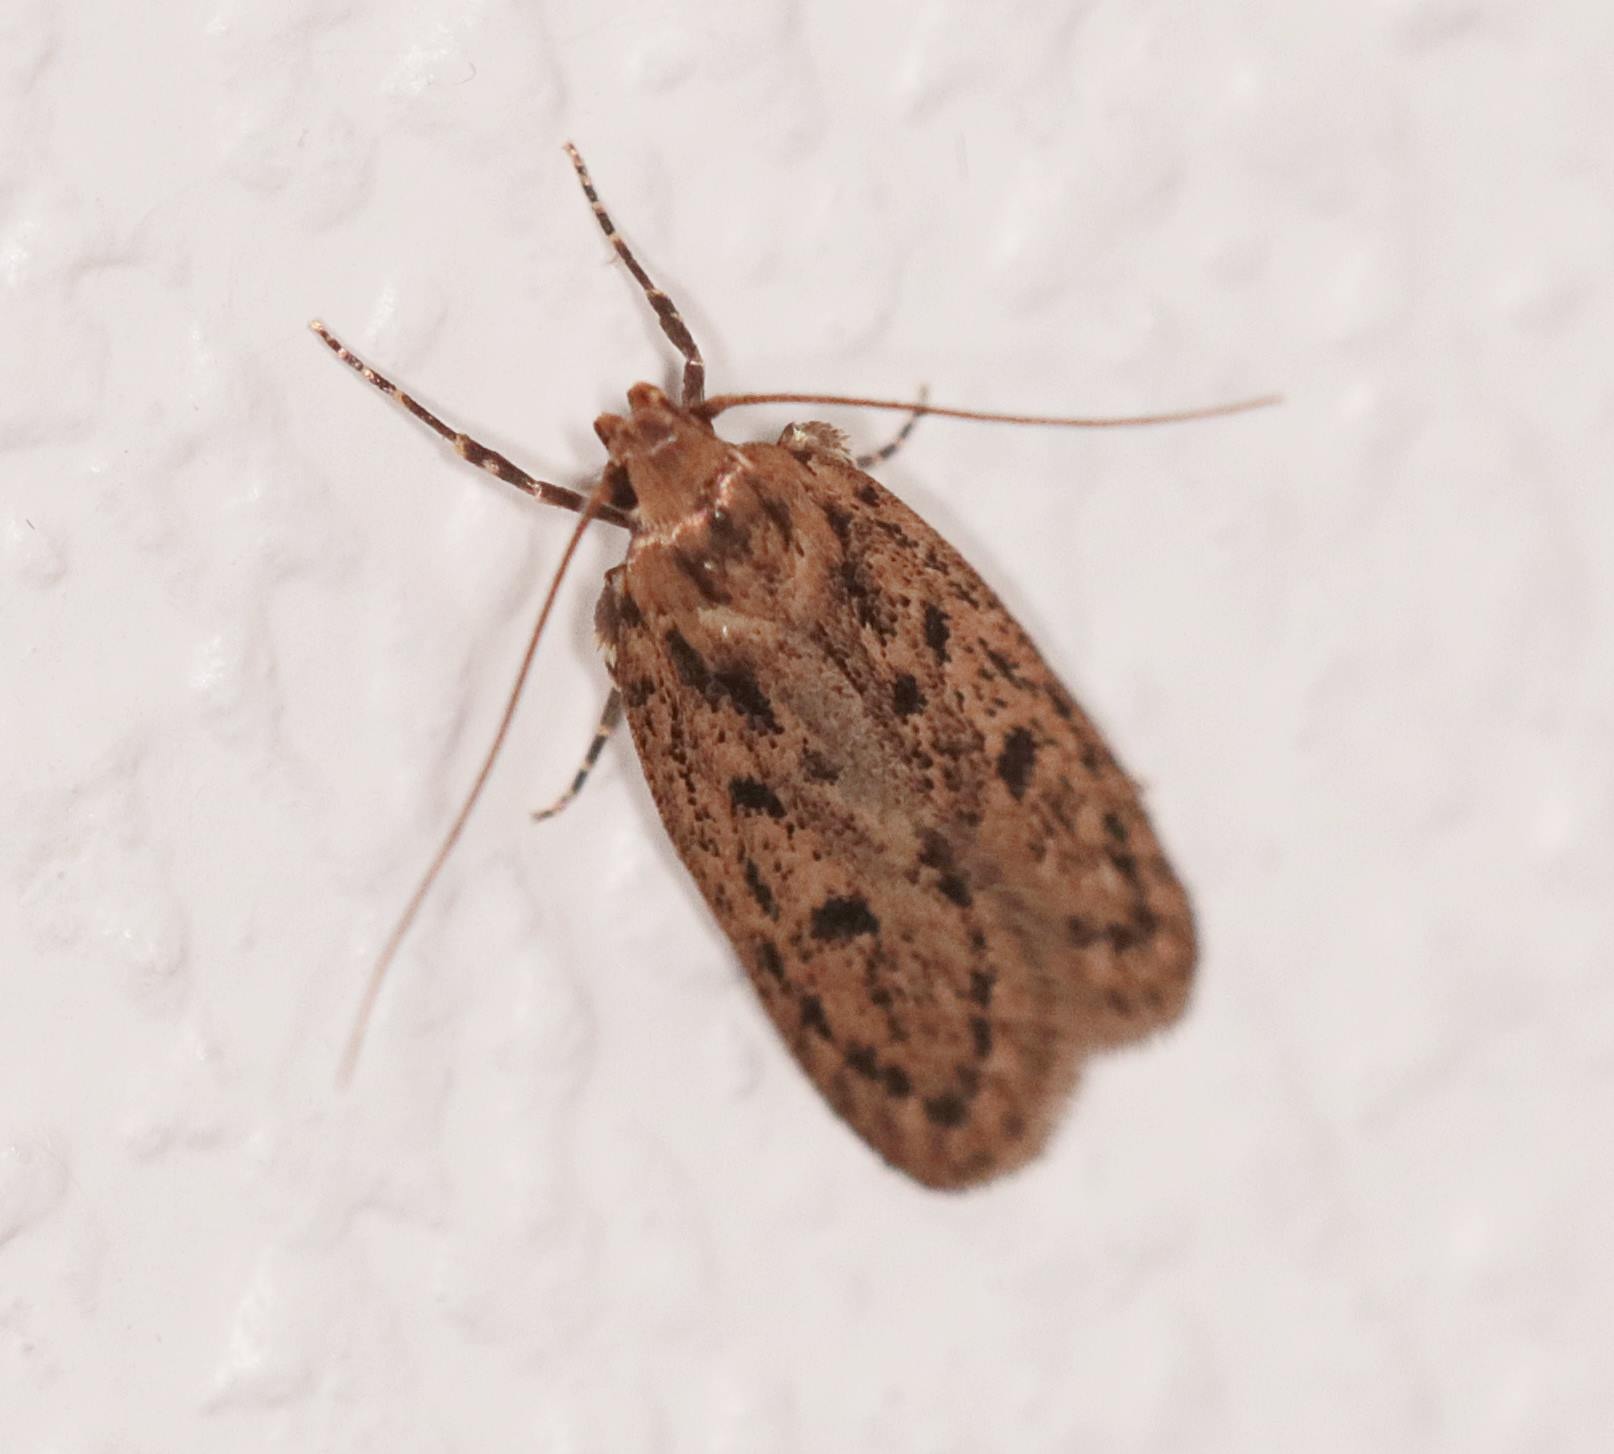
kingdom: Animalia
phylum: Arthropoda
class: Insecta
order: Lepidoptera
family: Oecophoridae
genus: Hofmannophila
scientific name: Hofmannophila pseudospretella
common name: Frømøl
